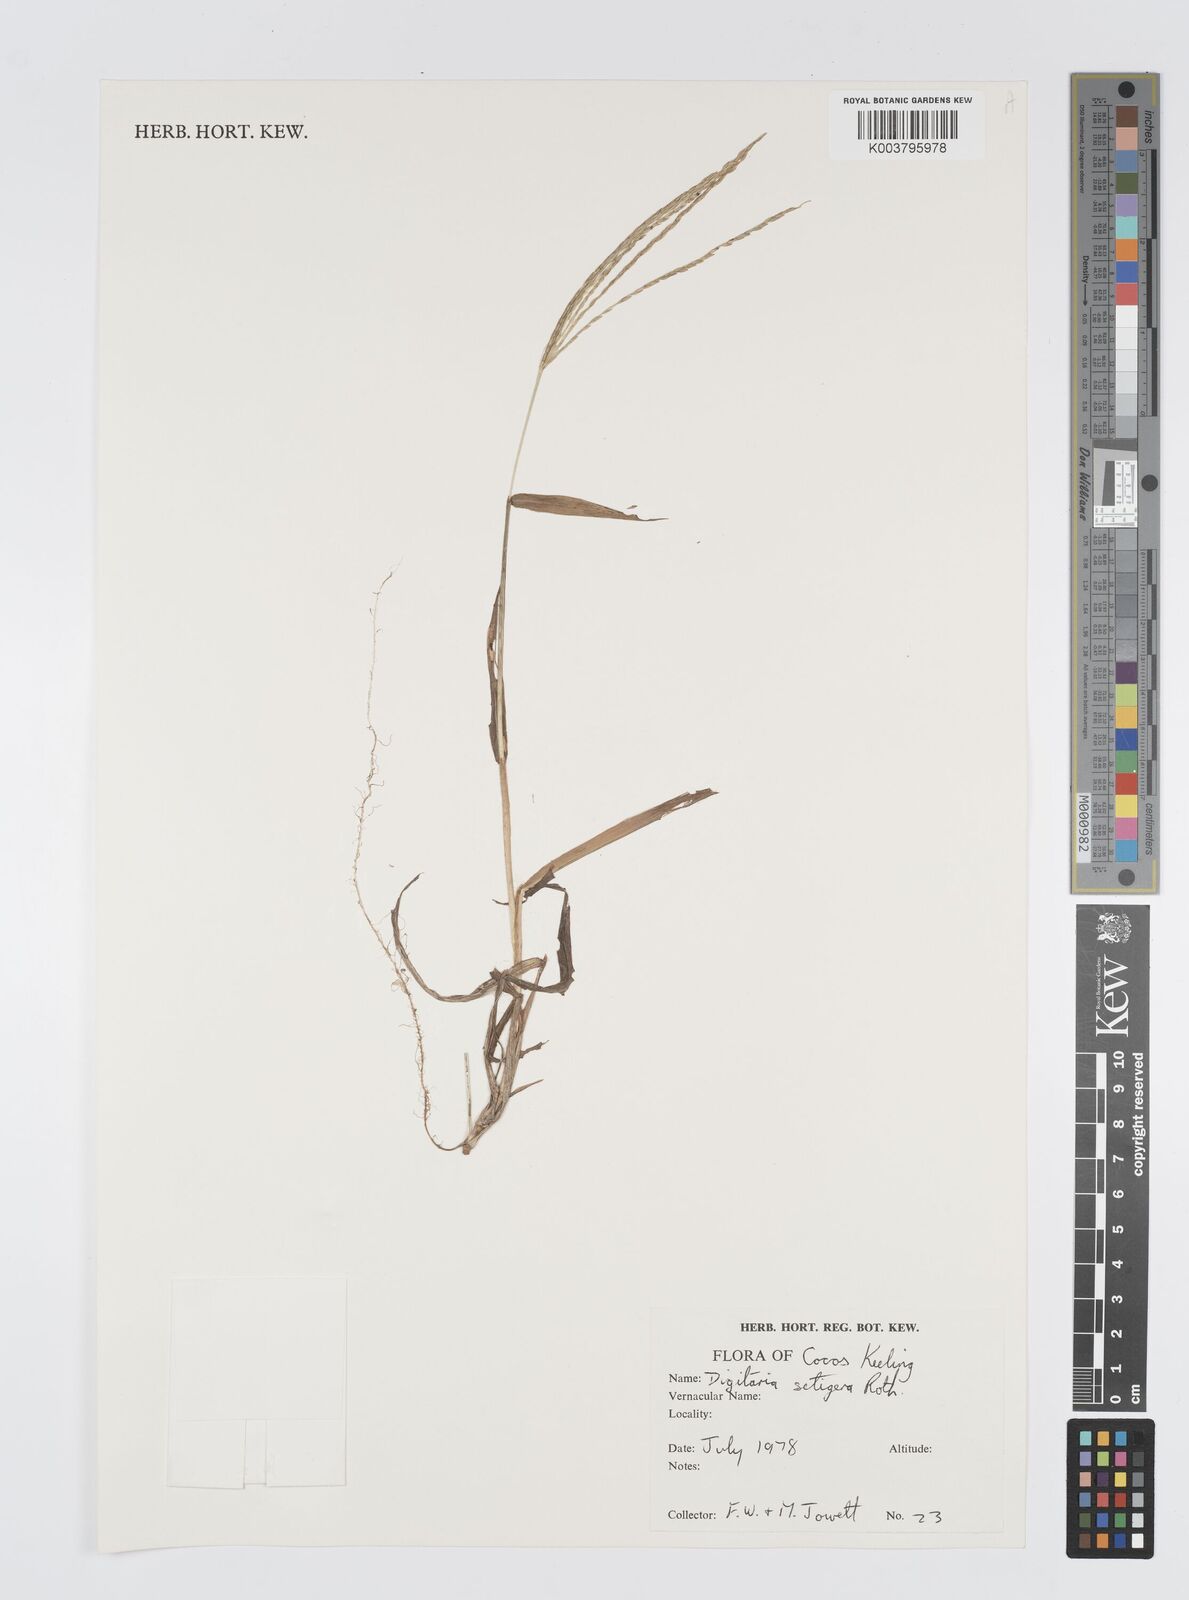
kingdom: Plantae
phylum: Tracheophyta
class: Liliopsida
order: Poales
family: Poaceae
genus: Digitaria
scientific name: Digitaria setigera
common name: East indian crabgrass
